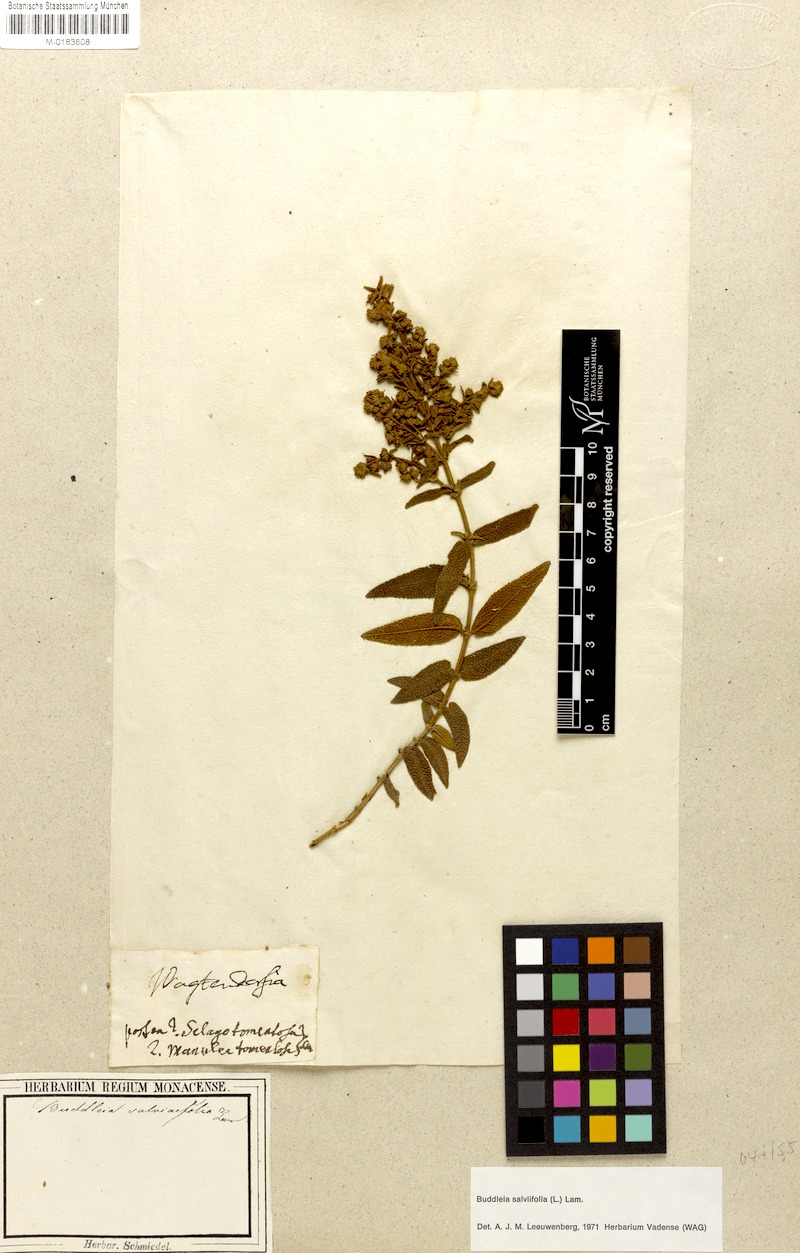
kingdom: Plantae
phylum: Tracheophyta
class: Magnoliopsida
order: Lamiales
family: Scrophulariaceae
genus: Buddleja
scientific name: Buddleja salviifolia
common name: Sagewood
